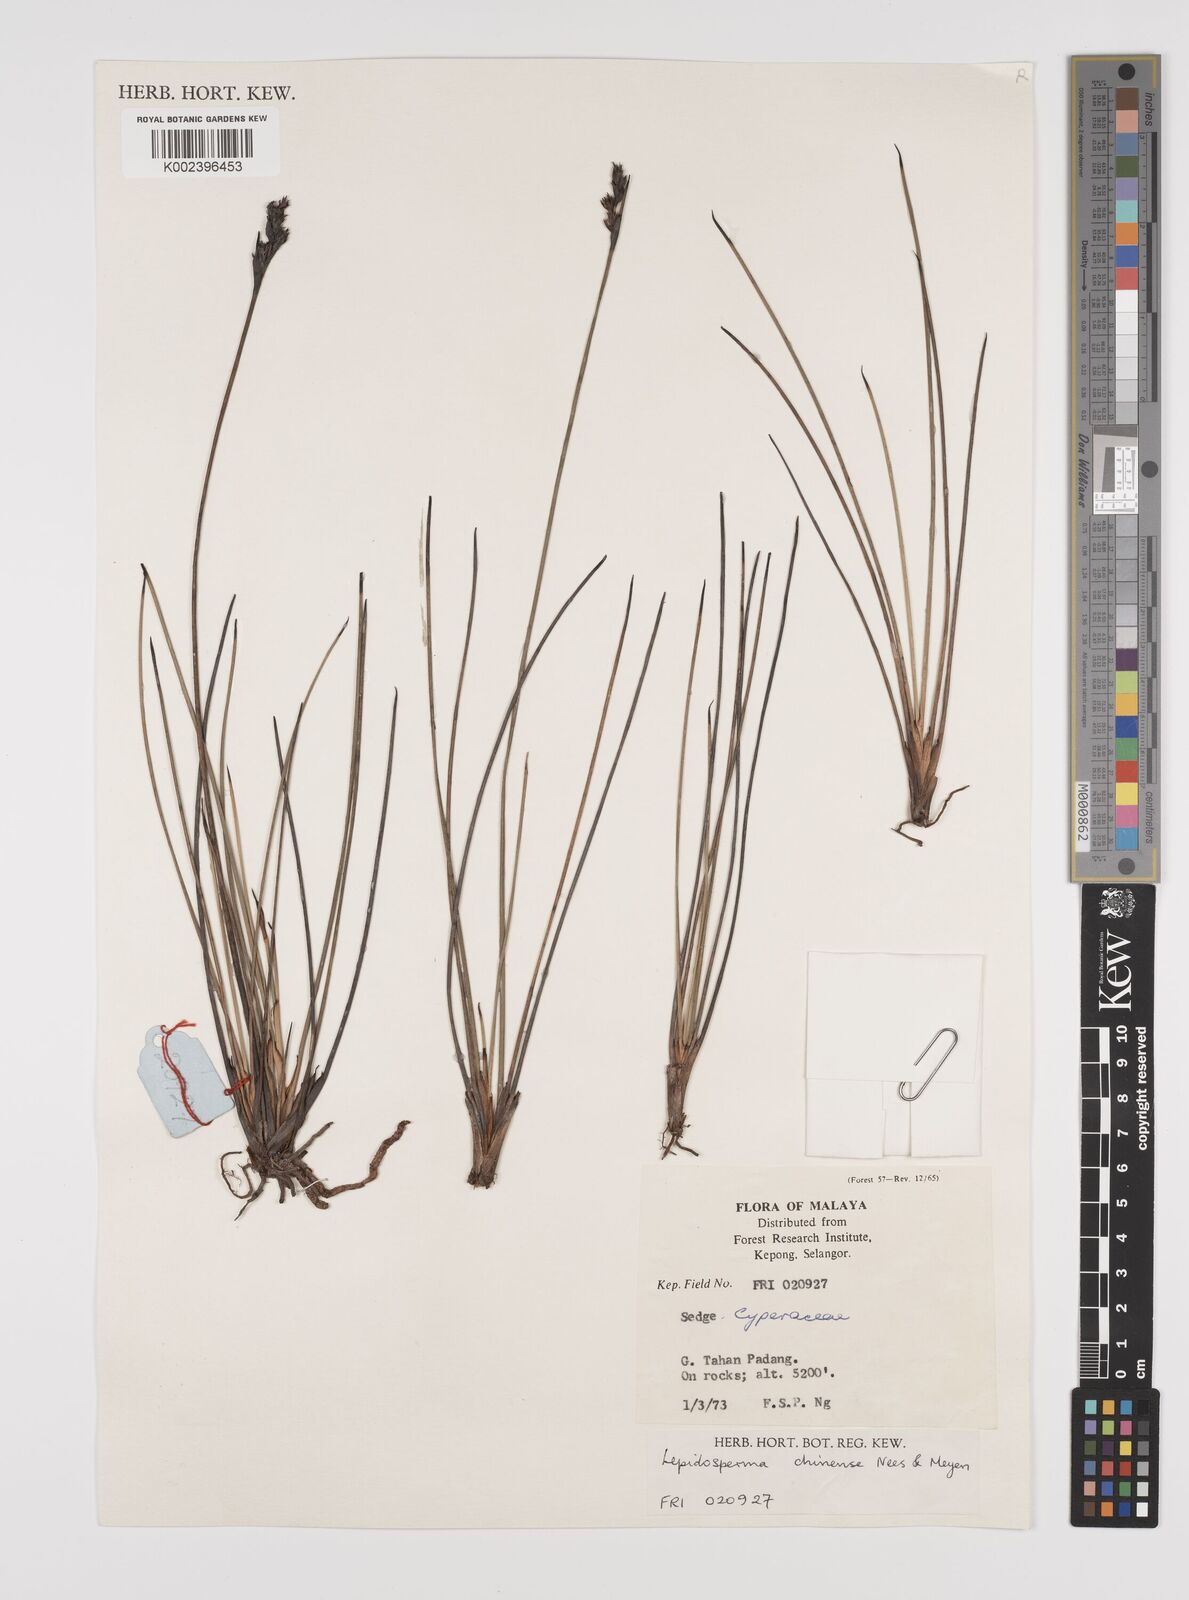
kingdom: Plantae
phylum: Tracheophyta
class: Liliopsida
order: Poales
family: Cyperaceae
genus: Lepidosperma
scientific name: Lepidosperma chinense
